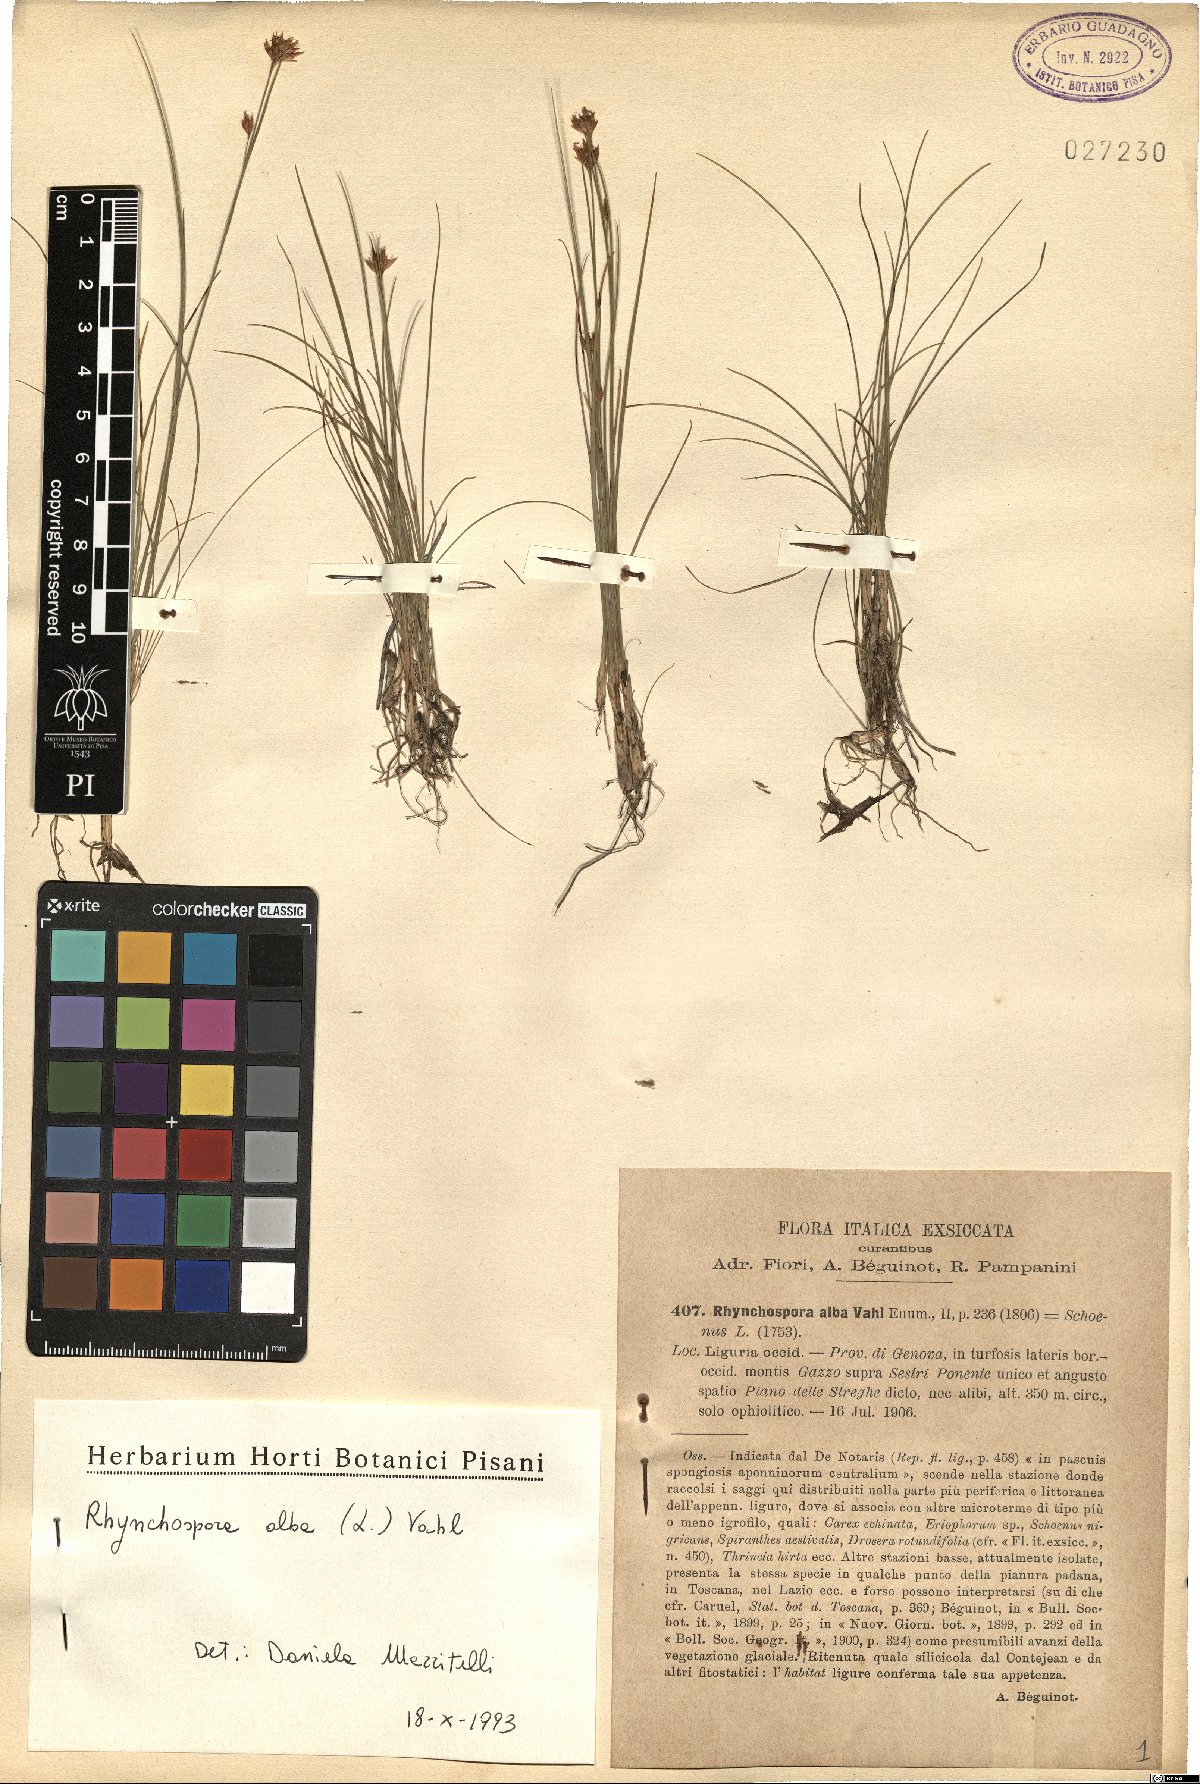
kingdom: Plantae
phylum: Tracheophyta
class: Liliopsida
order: Poales
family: Cyperaceae
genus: Rhynchospora
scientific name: Rhynchospora alba
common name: White beak-sedge
